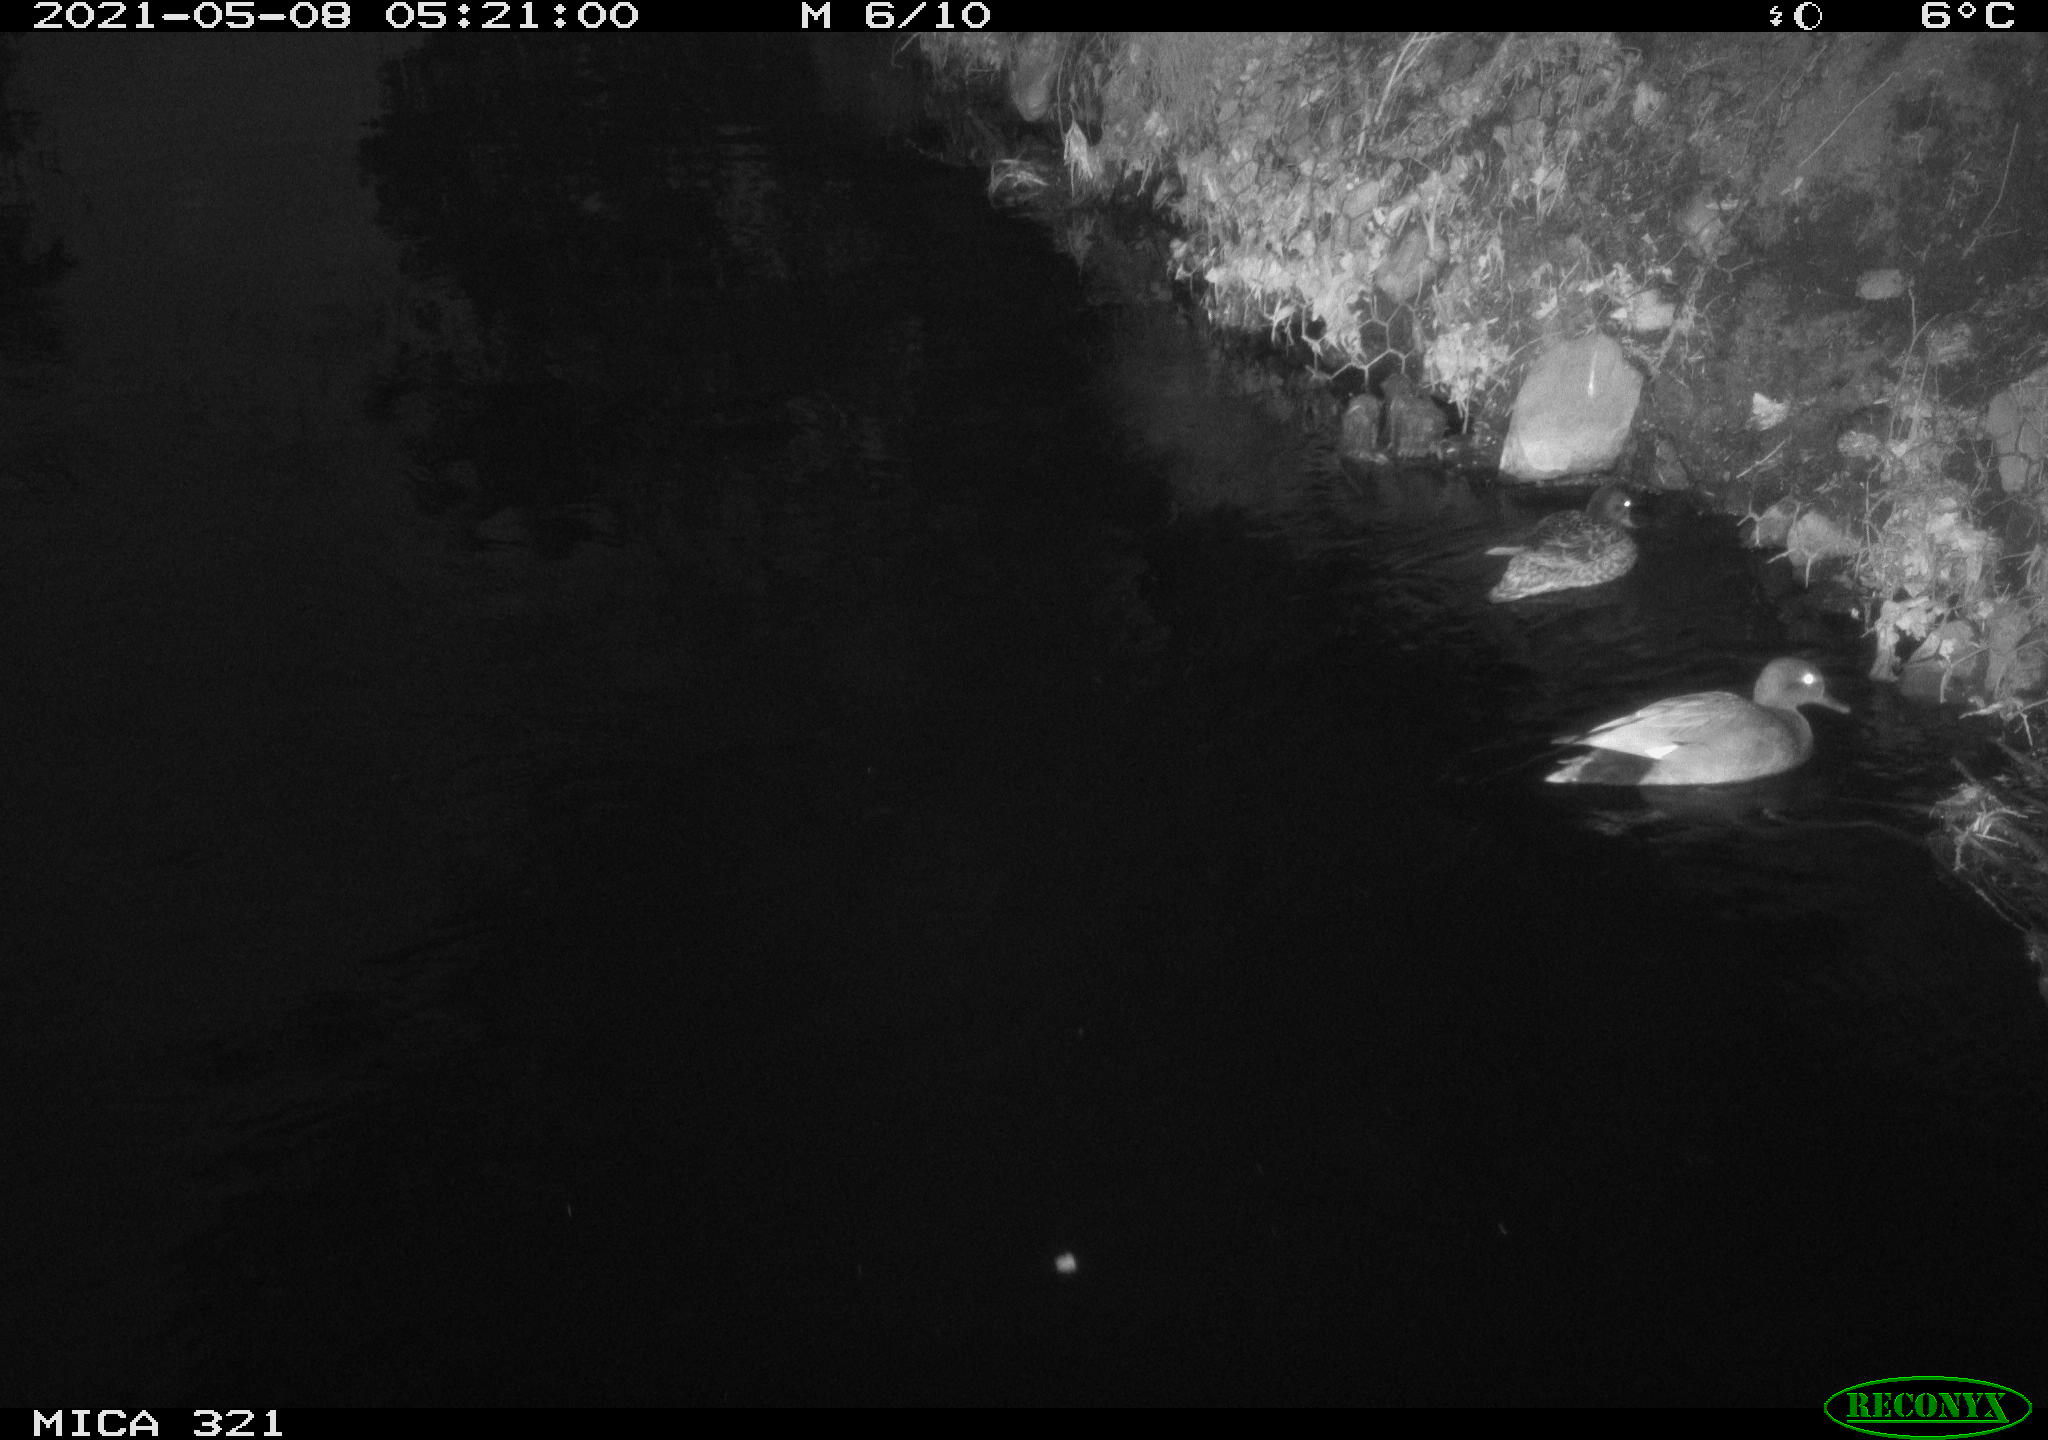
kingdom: Animalia
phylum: Chordata
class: Aves
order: Anseriformes
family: Anatidae
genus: Mareca
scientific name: Mareca strepera
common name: Gadwall
